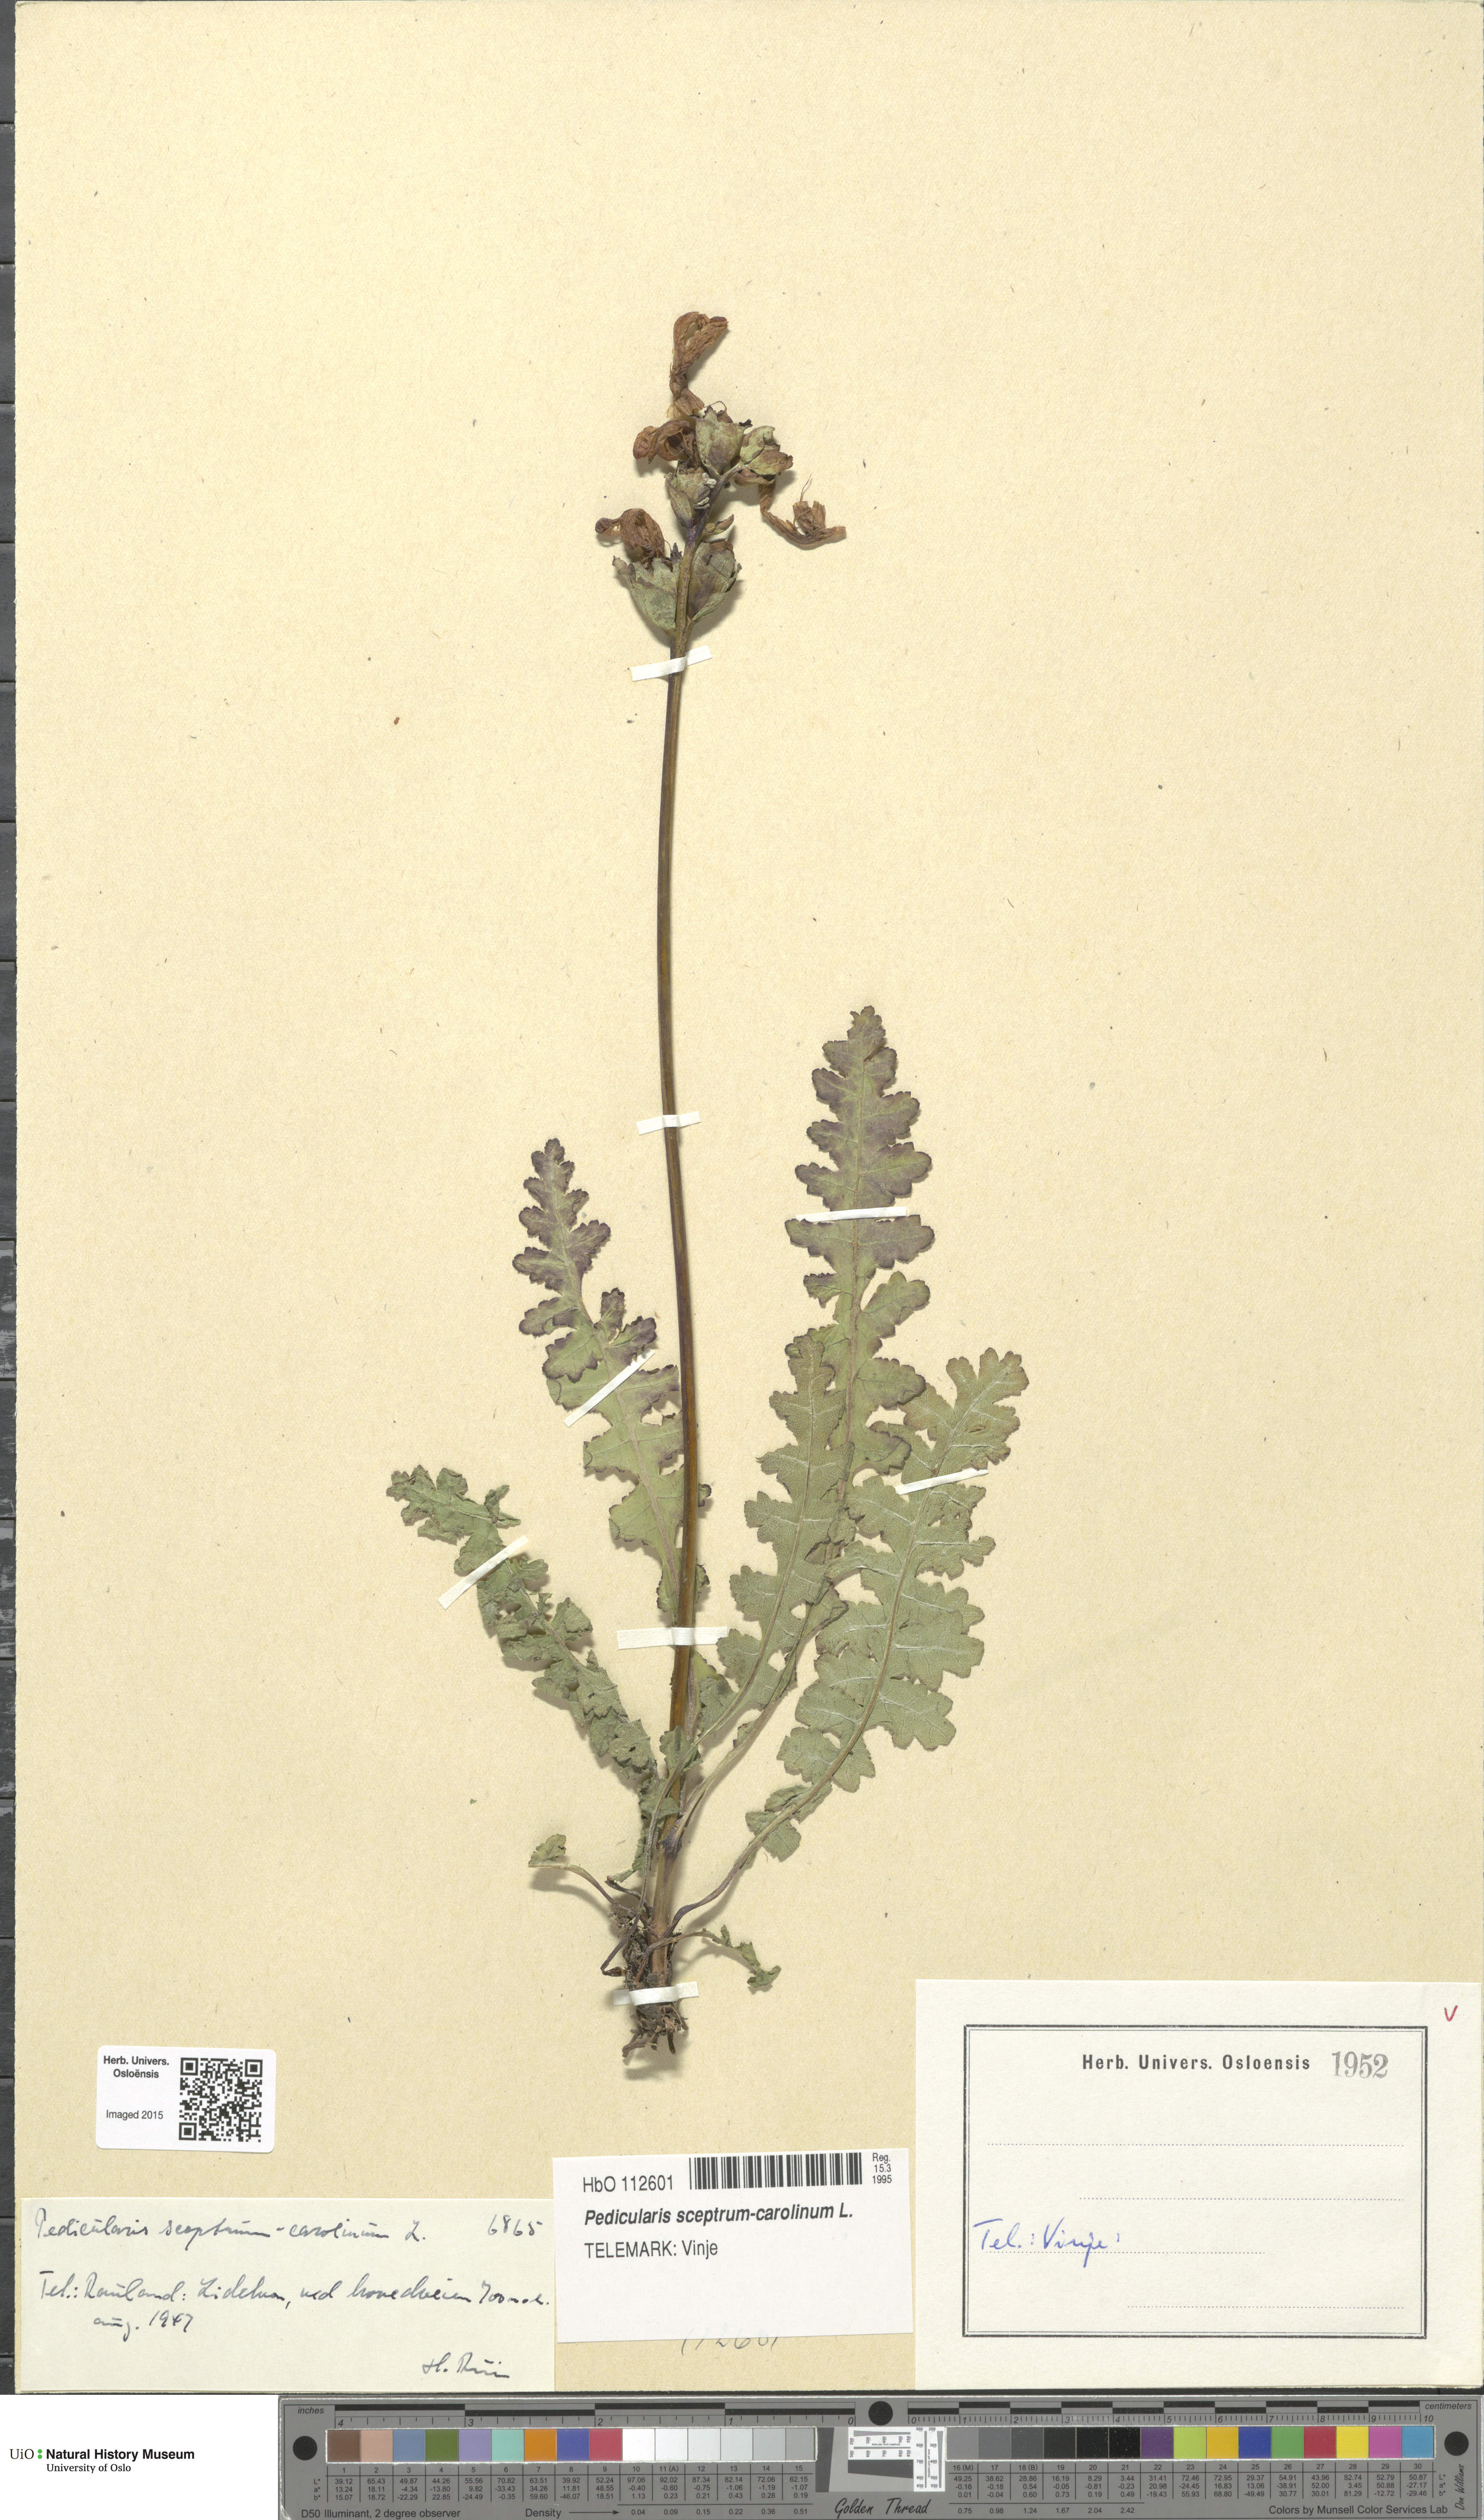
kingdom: Plantae
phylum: Tracheophyta
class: Magnoliopsida
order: Lamiales
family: Orobanchaceae
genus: Pedicularis
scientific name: Pedicularis sceptrum-carolinum
